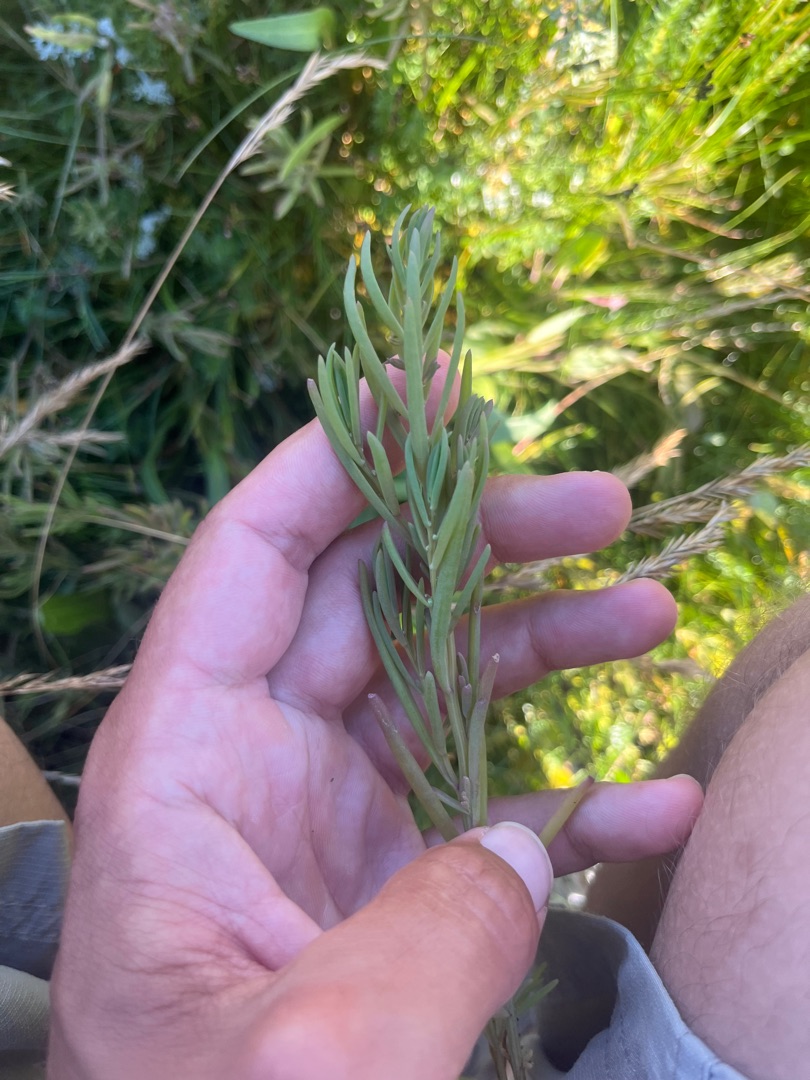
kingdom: Plantae
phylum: Tracheophyta
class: Magnoliopsida
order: Caryophyllales
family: Amaranthaceae
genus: Suaeda
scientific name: Suaeda maritima
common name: Strandgåsefod
